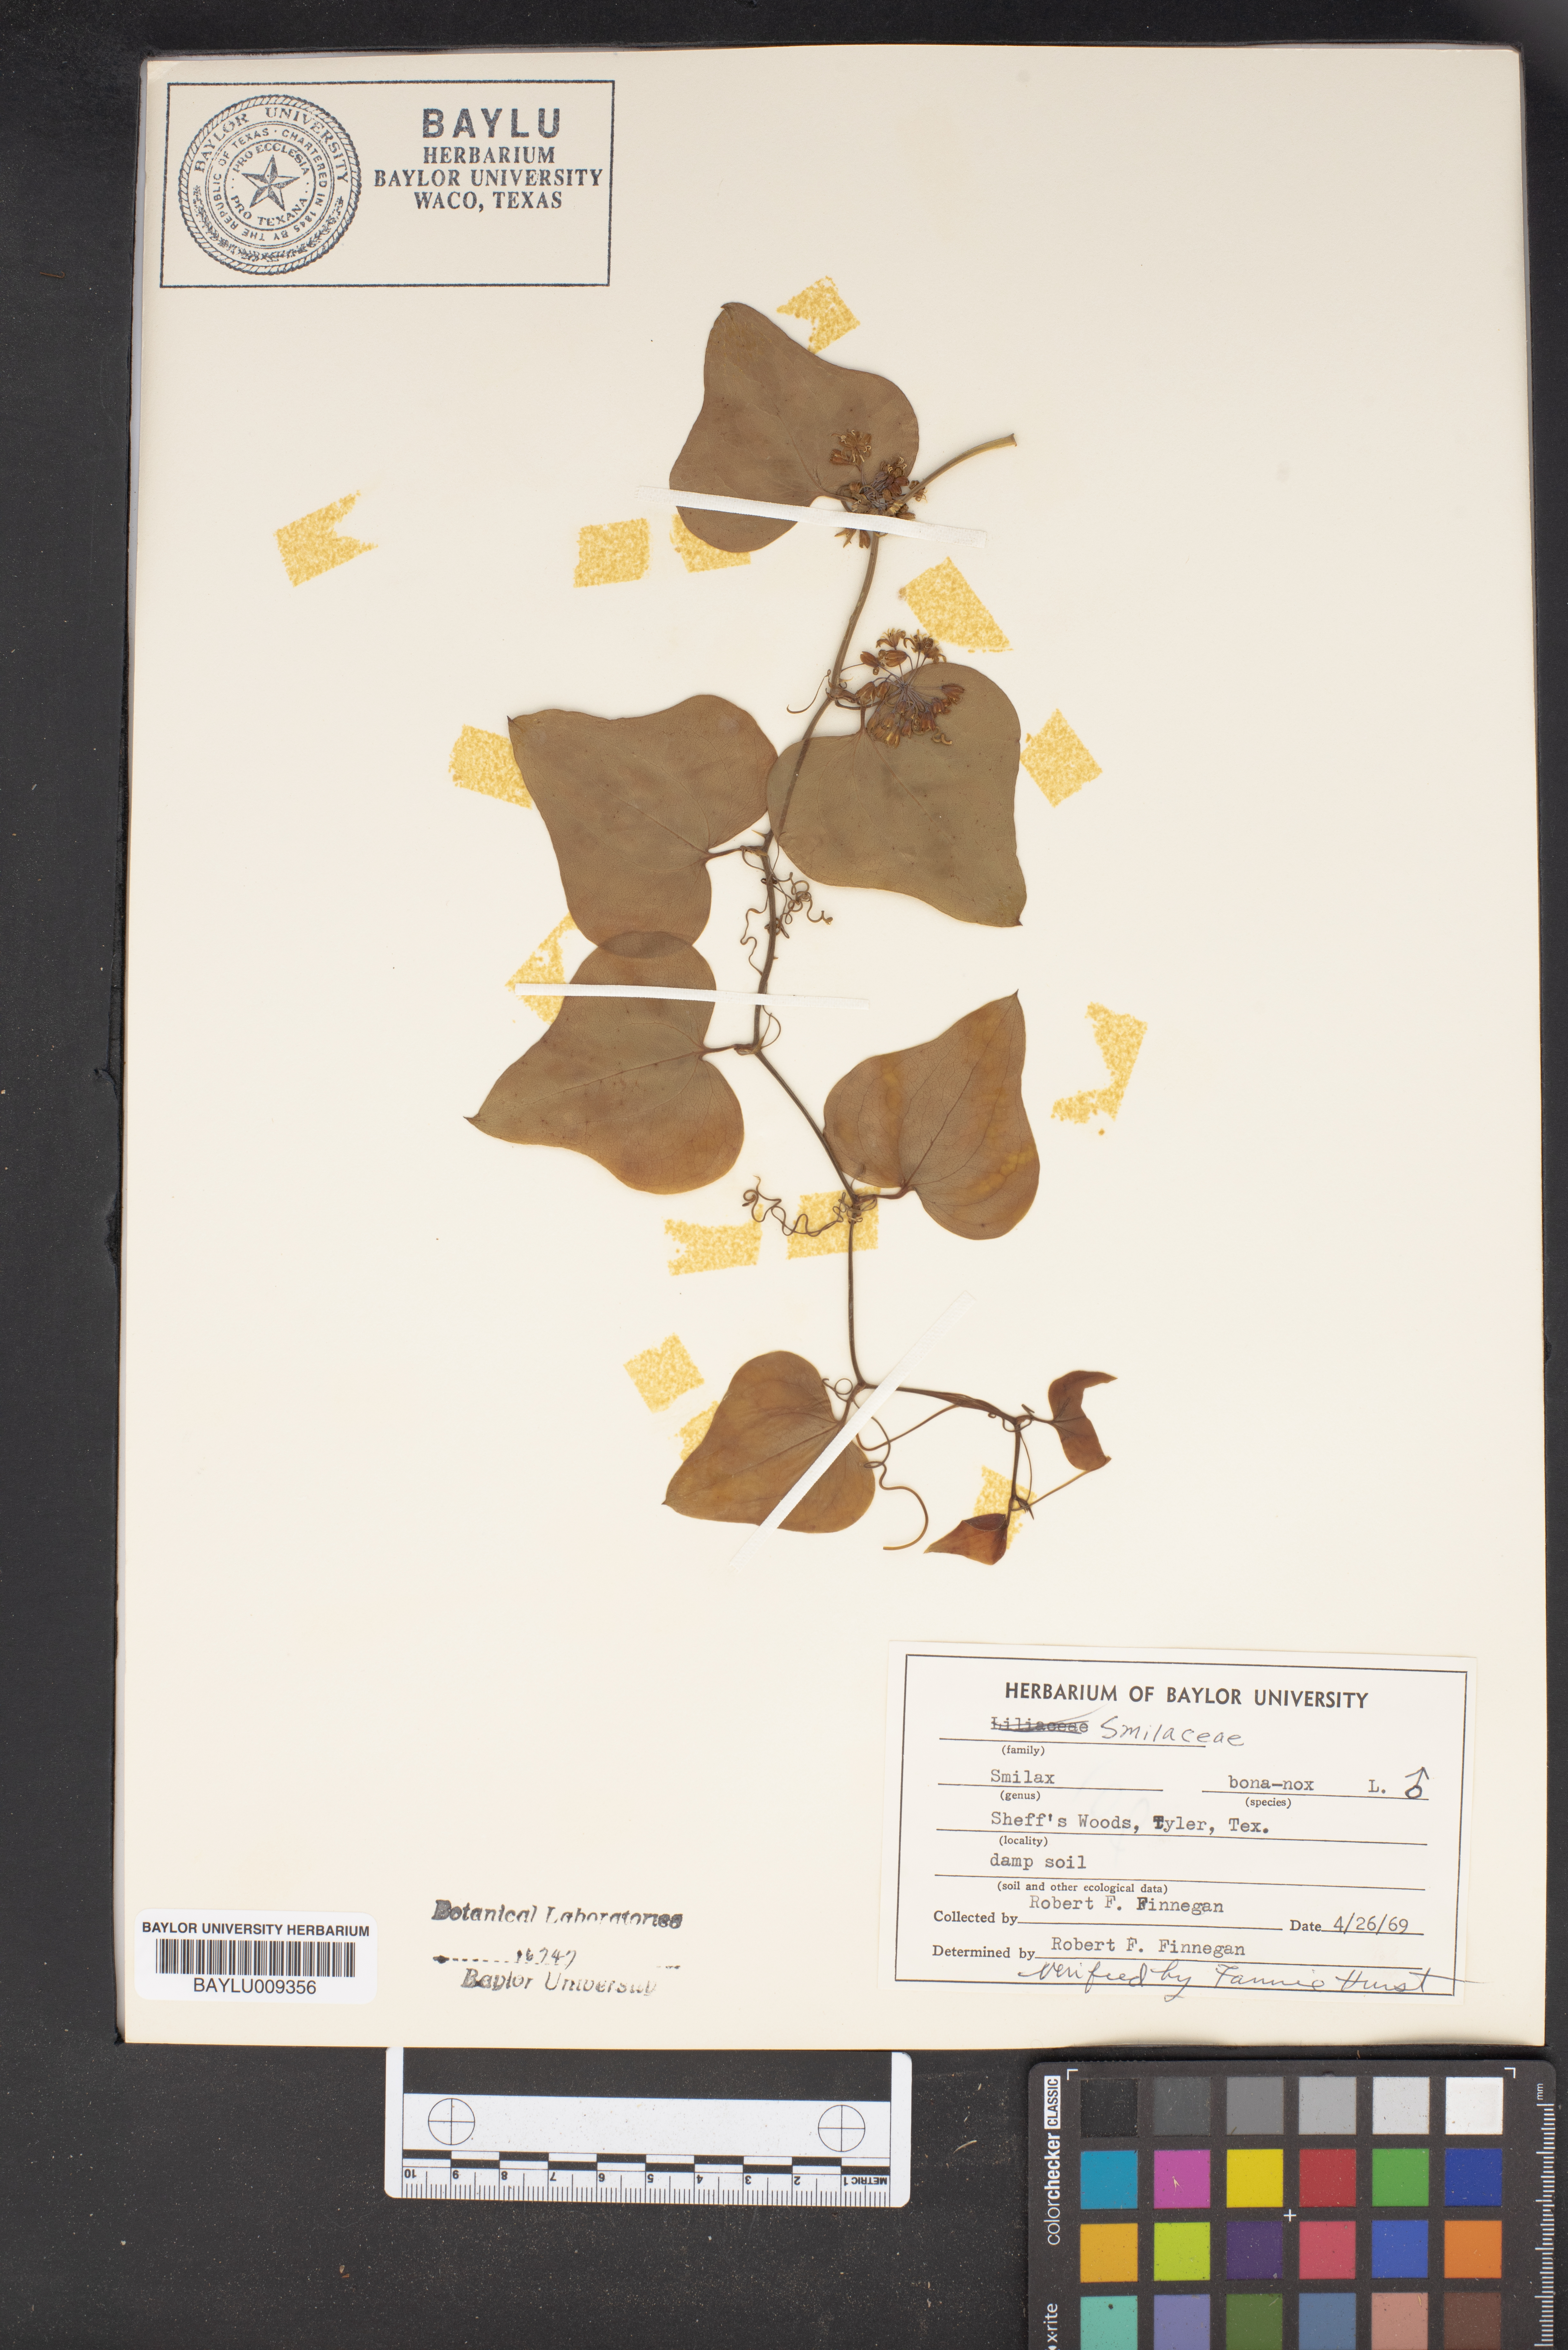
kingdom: Plantae
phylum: Tracheophyta
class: Liliopsida
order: Liliales
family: Smilacaceae
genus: Smilax
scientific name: Smilax bona-nox
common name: Catbrier
